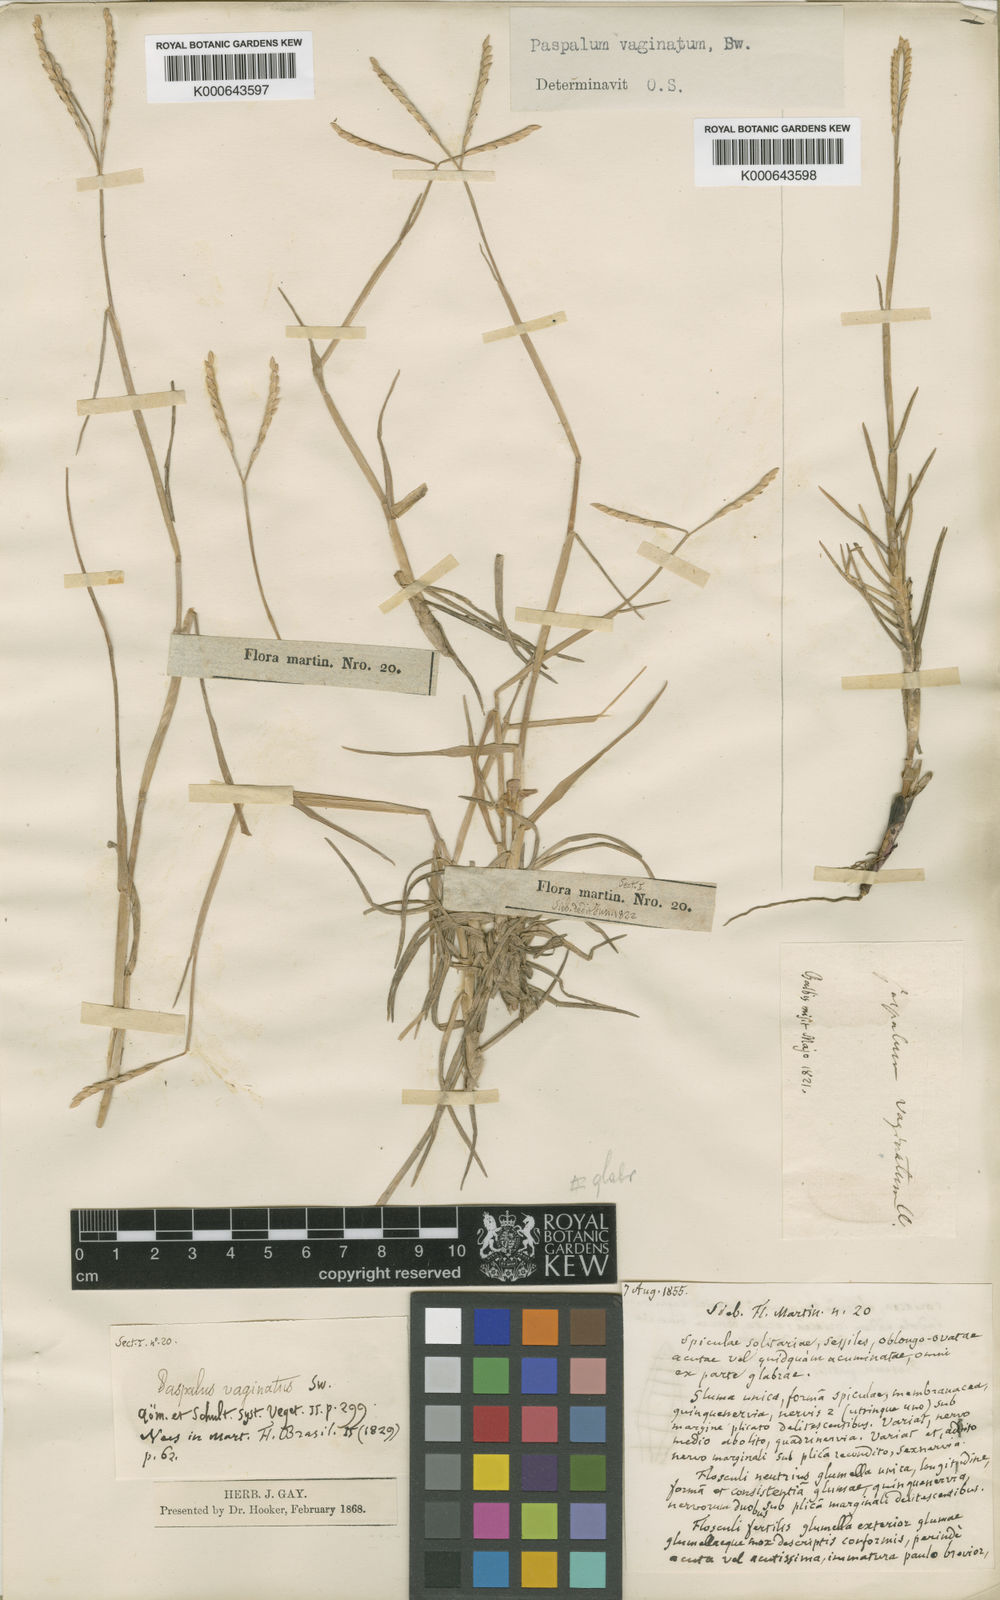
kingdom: Plantae
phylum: Tracheophyta
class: Liliopsida
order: Poales
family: Poaceae
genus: Paspalum
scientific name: Paspalum vaginatum
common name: Seashore paspalum
